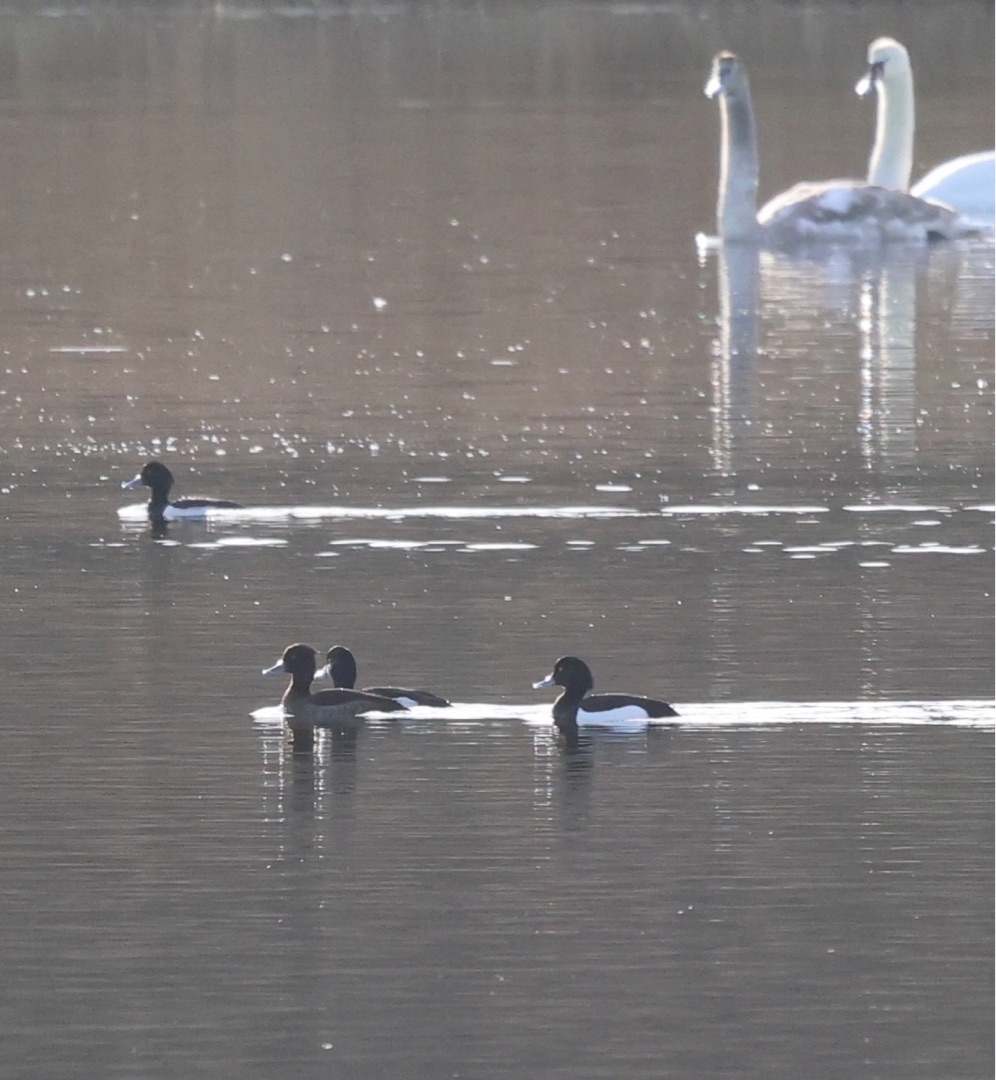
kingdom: Animalia
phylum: Chordata
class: Aves
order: Anseriformes
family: Anatidae
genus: Aythya
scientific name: Aythya fuligula
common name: Troldand
